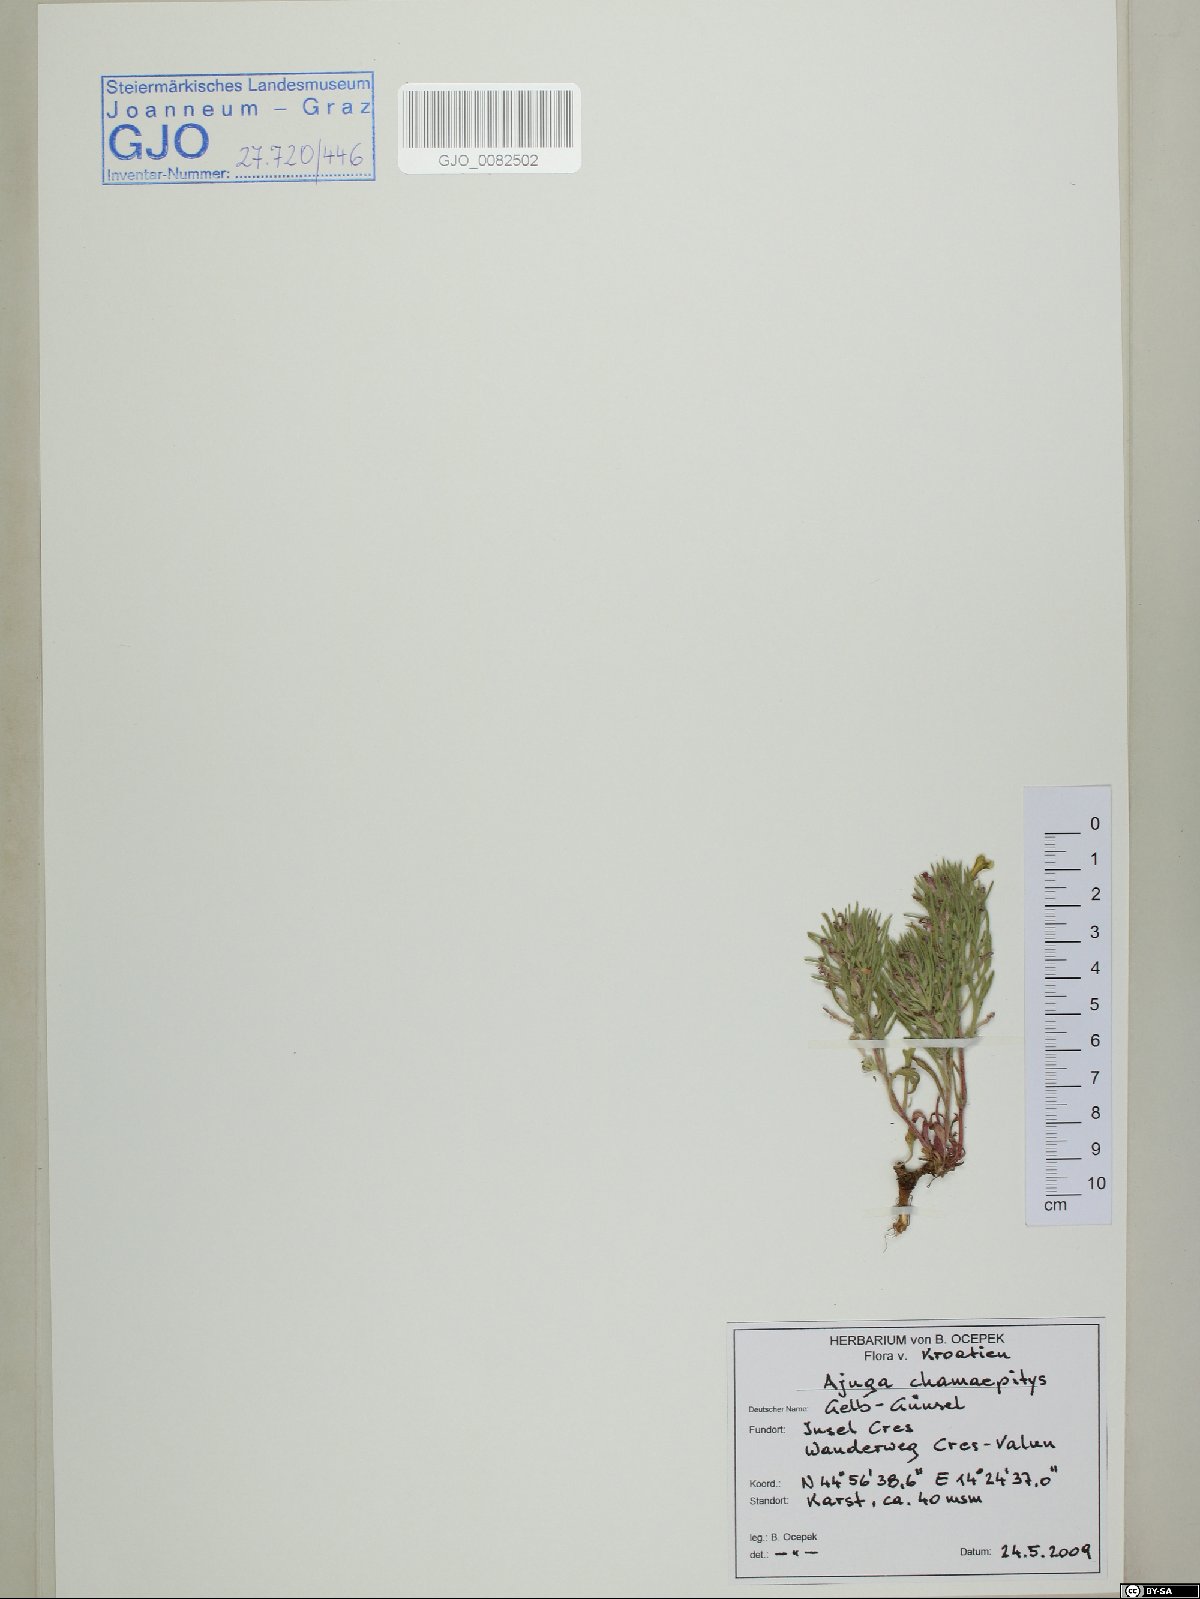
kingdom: Plantae
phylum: Tracheophyta
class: Magnoliopsida
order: Lamiales
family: Lamiaceae
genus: Ajuga
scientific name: Ajuga chamaepitys
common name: Ground-pine
